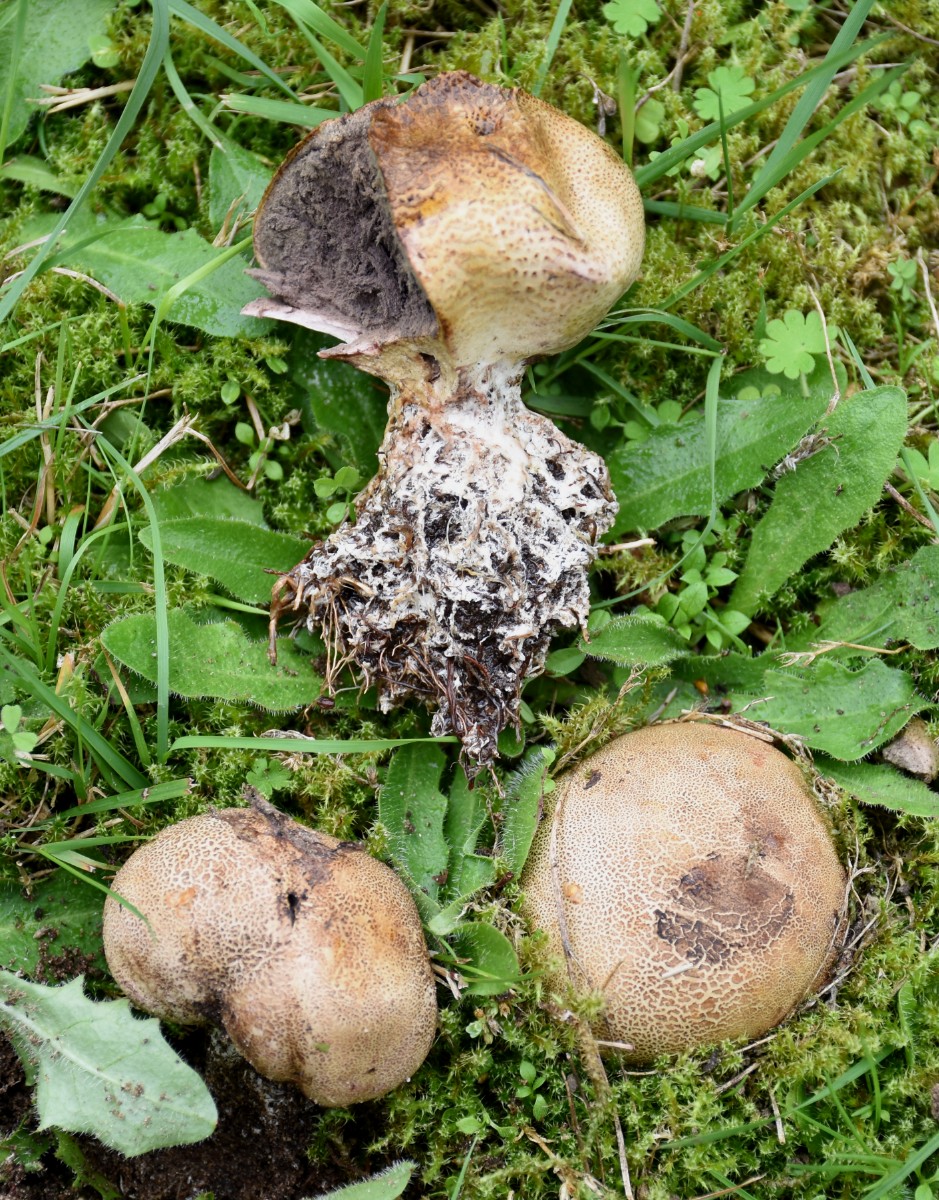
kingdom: Fungi
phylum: Basidiomycota
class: Agaricomycetes
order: Boletales
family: Sclerodermataceae
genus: Scleroderma
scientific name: Scleroderma verrucosum
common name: stilket bruskbold
